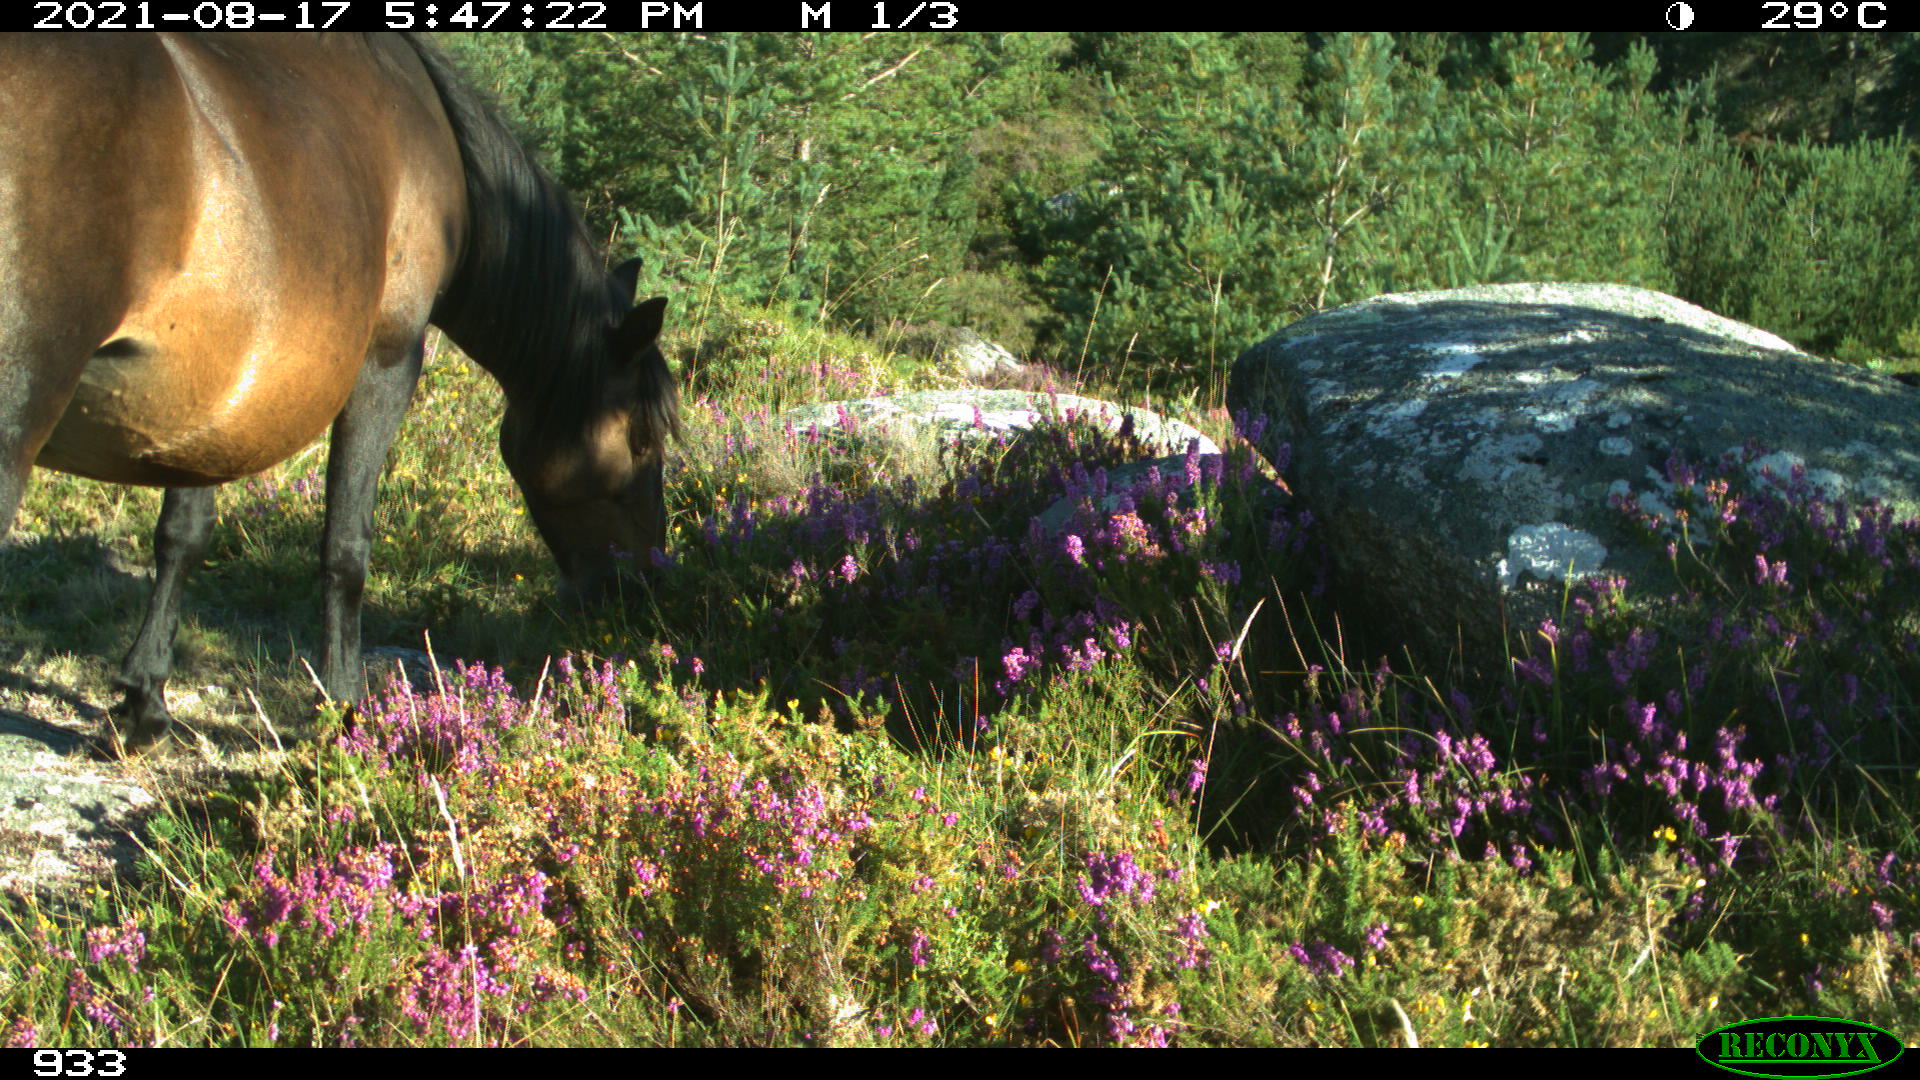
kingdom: Animalia
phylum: Chordata
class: Mammalia
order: Perissodactyla
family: Equidae
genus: Equus
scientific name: Equus caballus
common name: Horse
